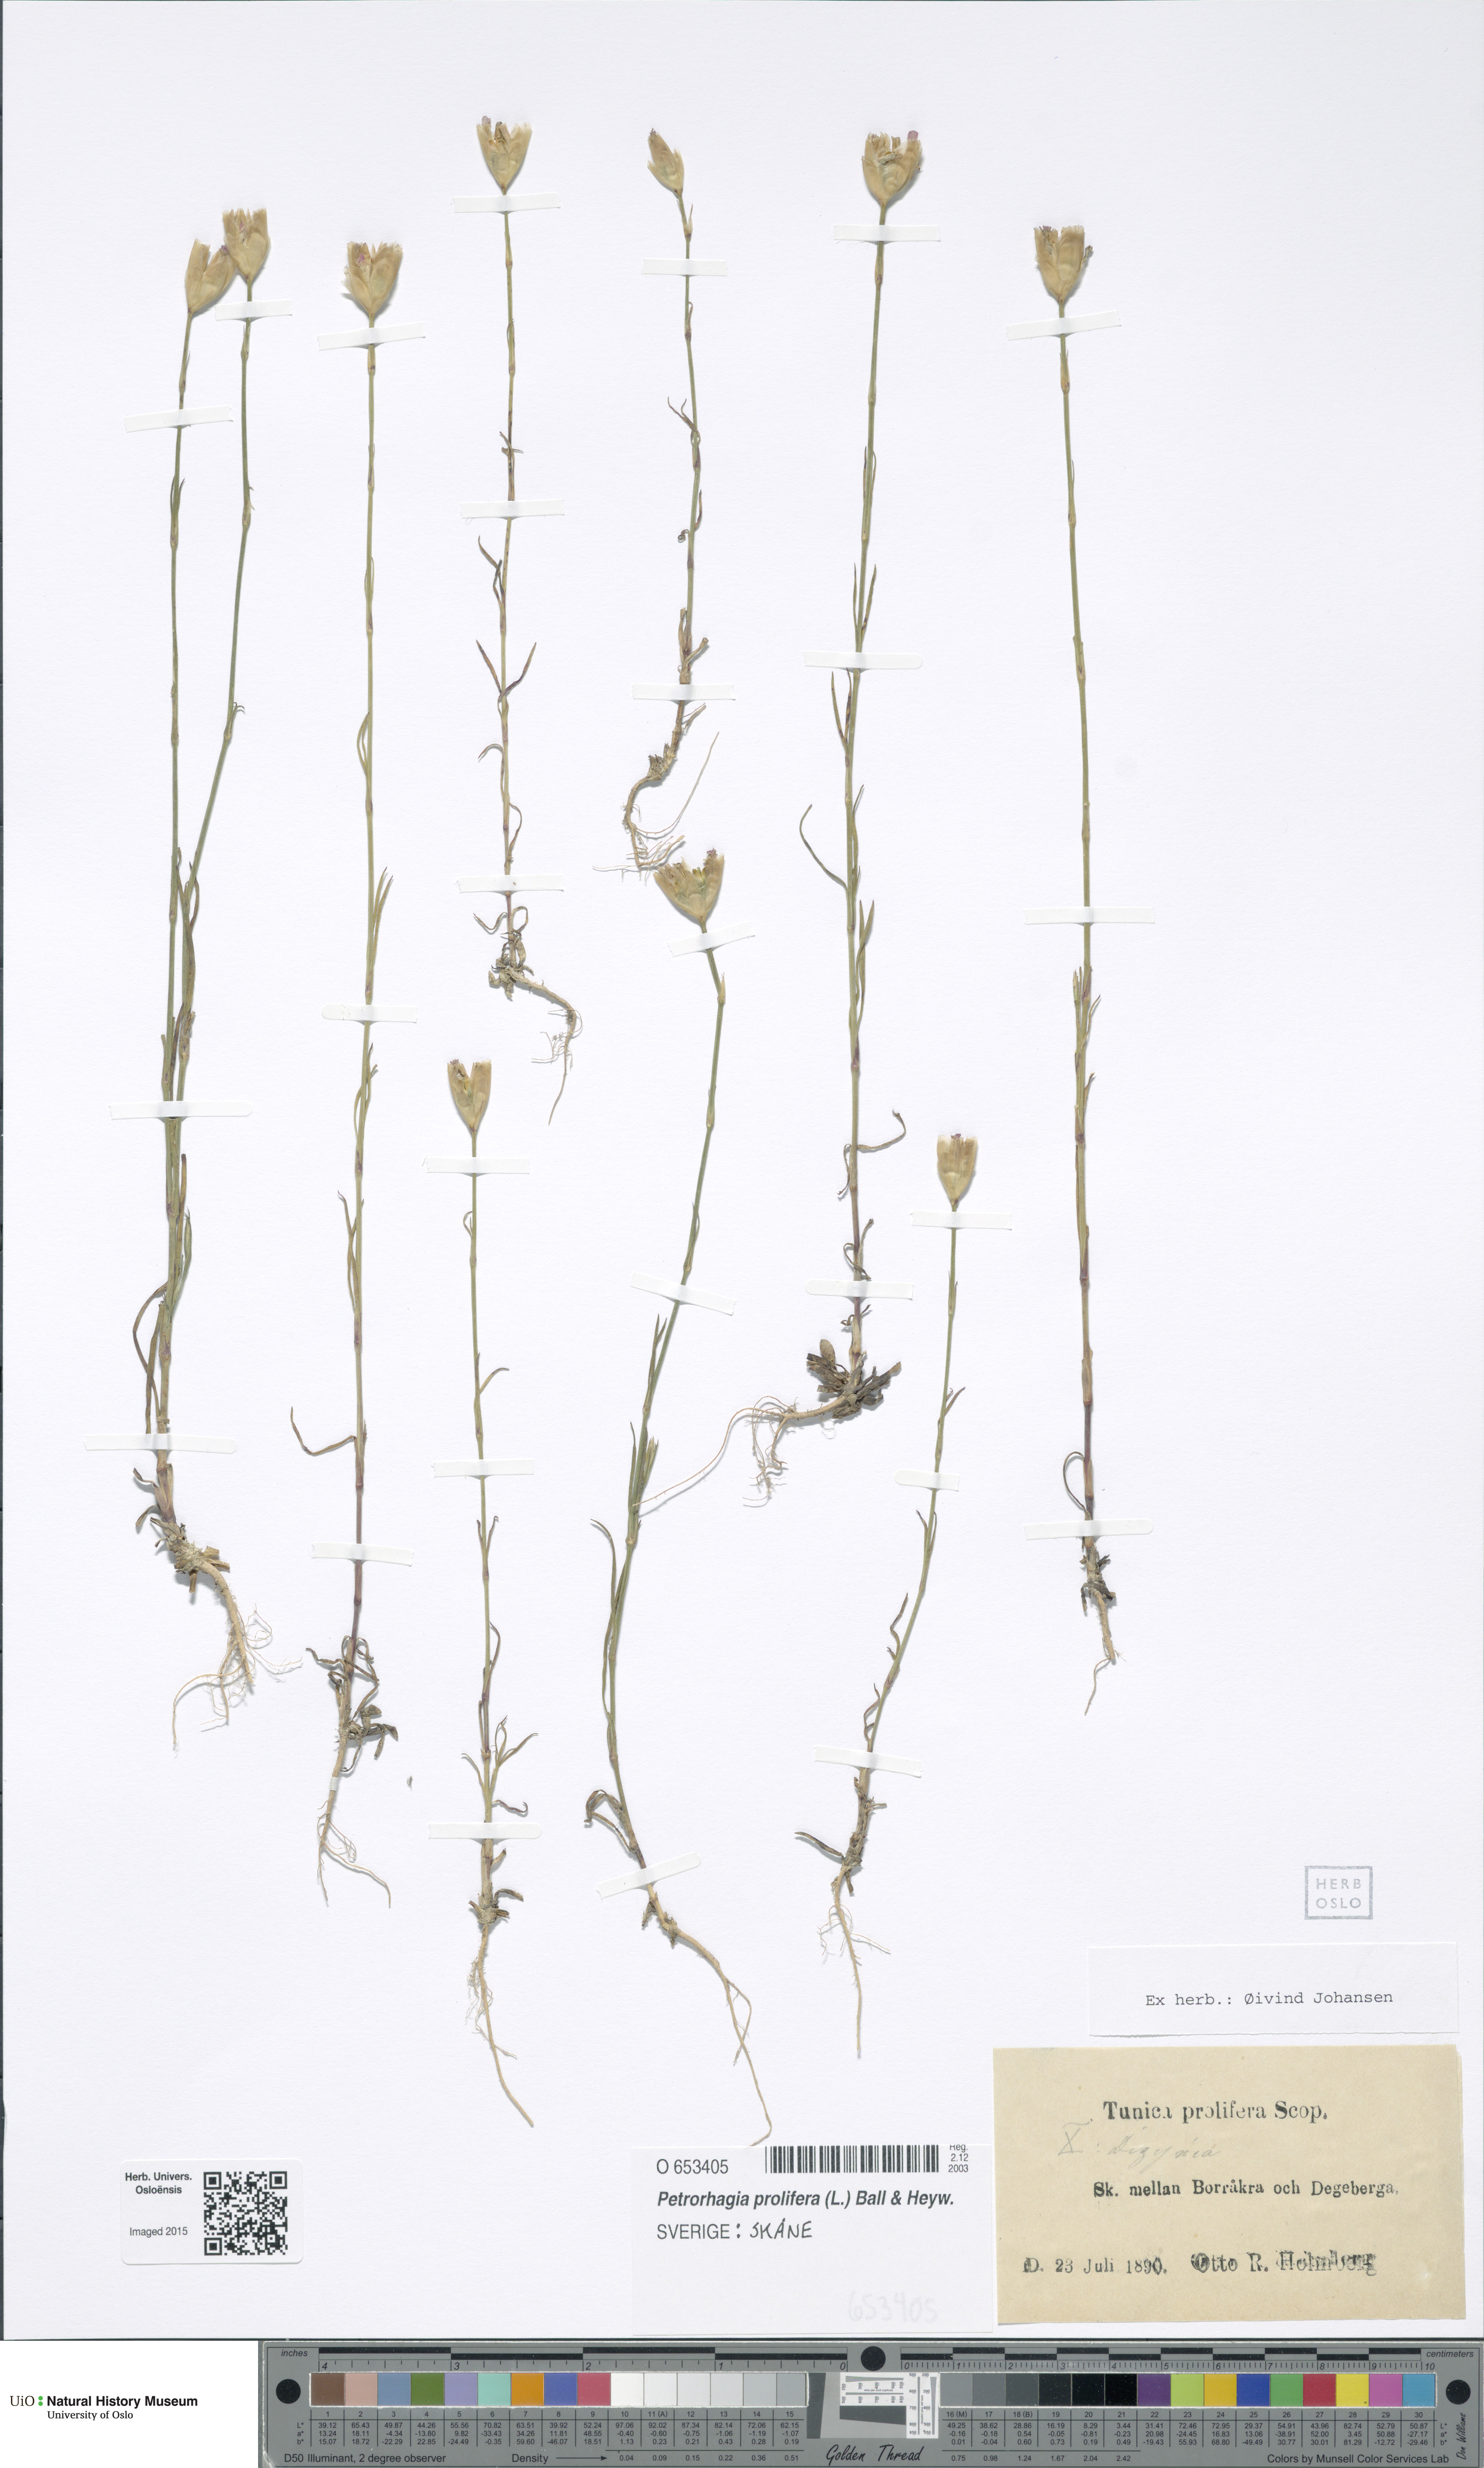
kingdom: Plantae
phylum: Tracheophyta
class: Magnoliopsida
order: Caryophyllales
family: Caryophyllaceae
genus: Petrorhagia
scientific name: Petrorhagia prolifera
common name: Proliferous pink
